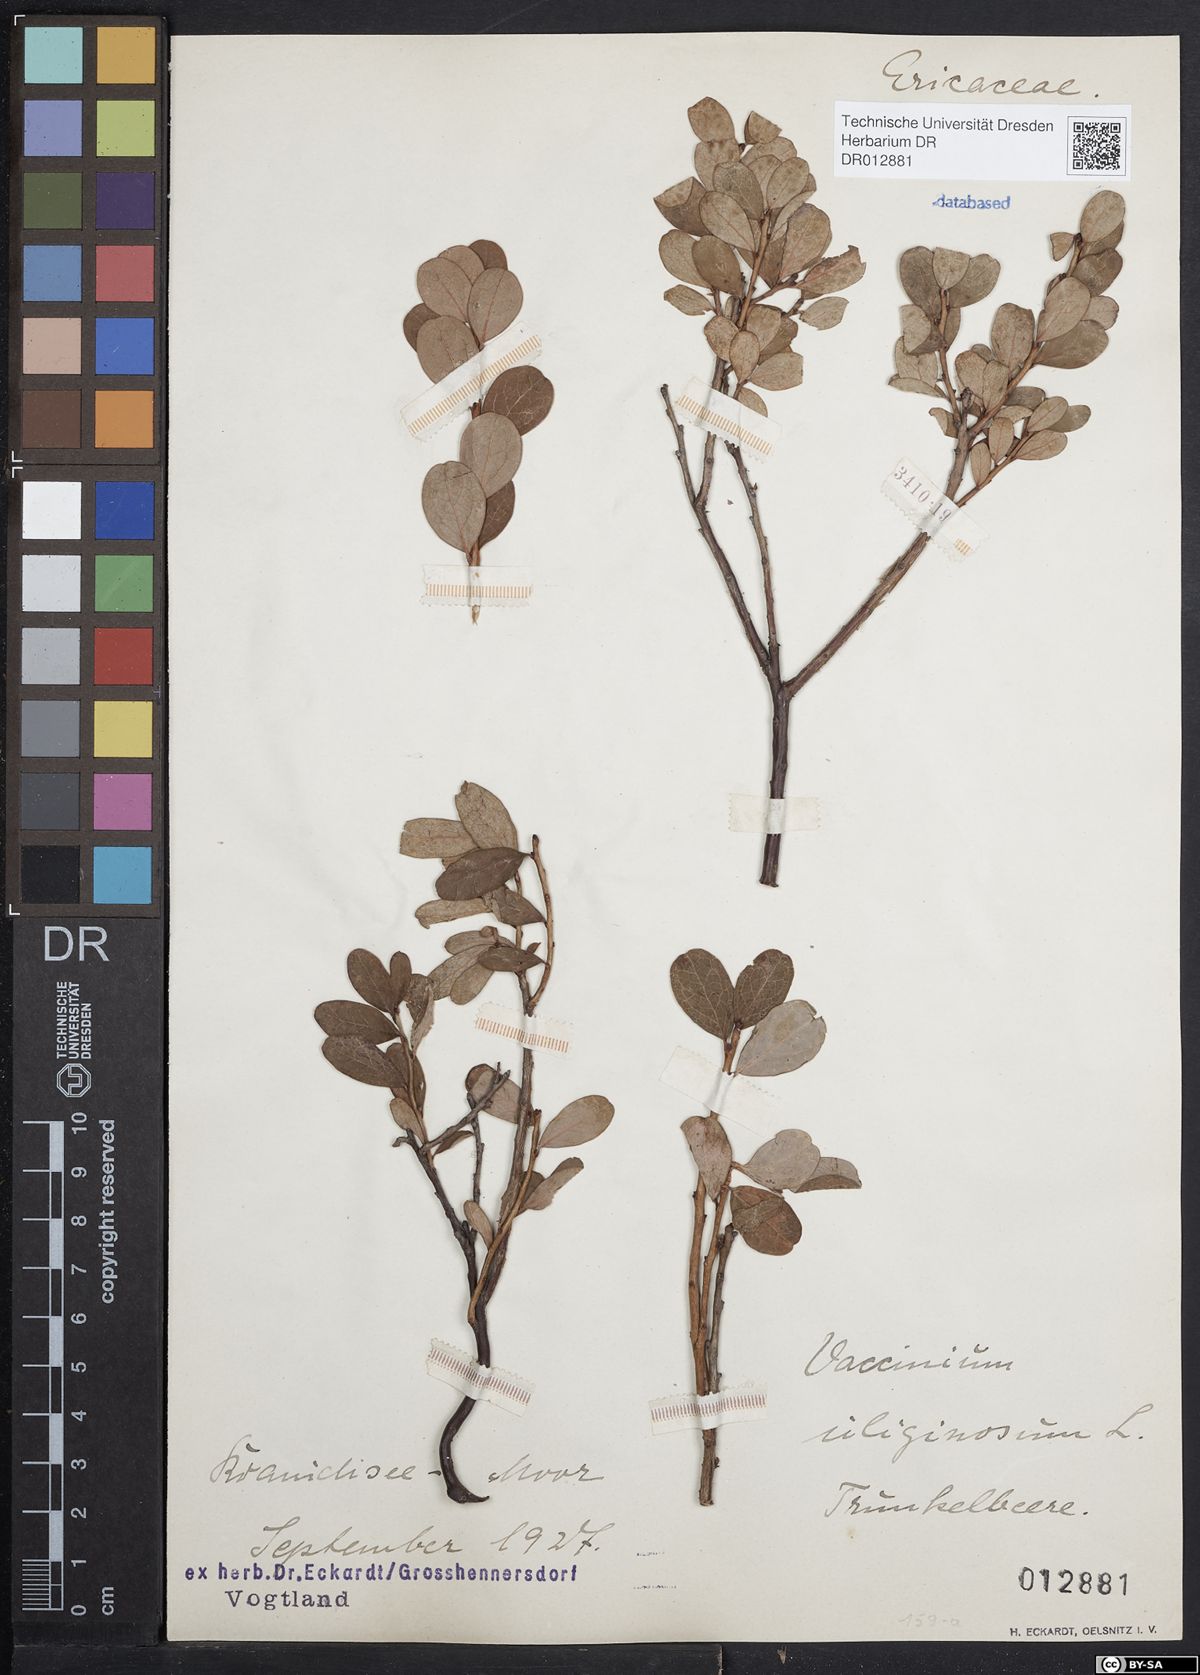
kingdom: Plantae
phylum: Tracheophyta
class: Magnoliopsida
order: Ericales
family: Ericaceae
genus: Vaccinium
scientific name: Vaccinium uliginosum
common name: Bog bilberry
